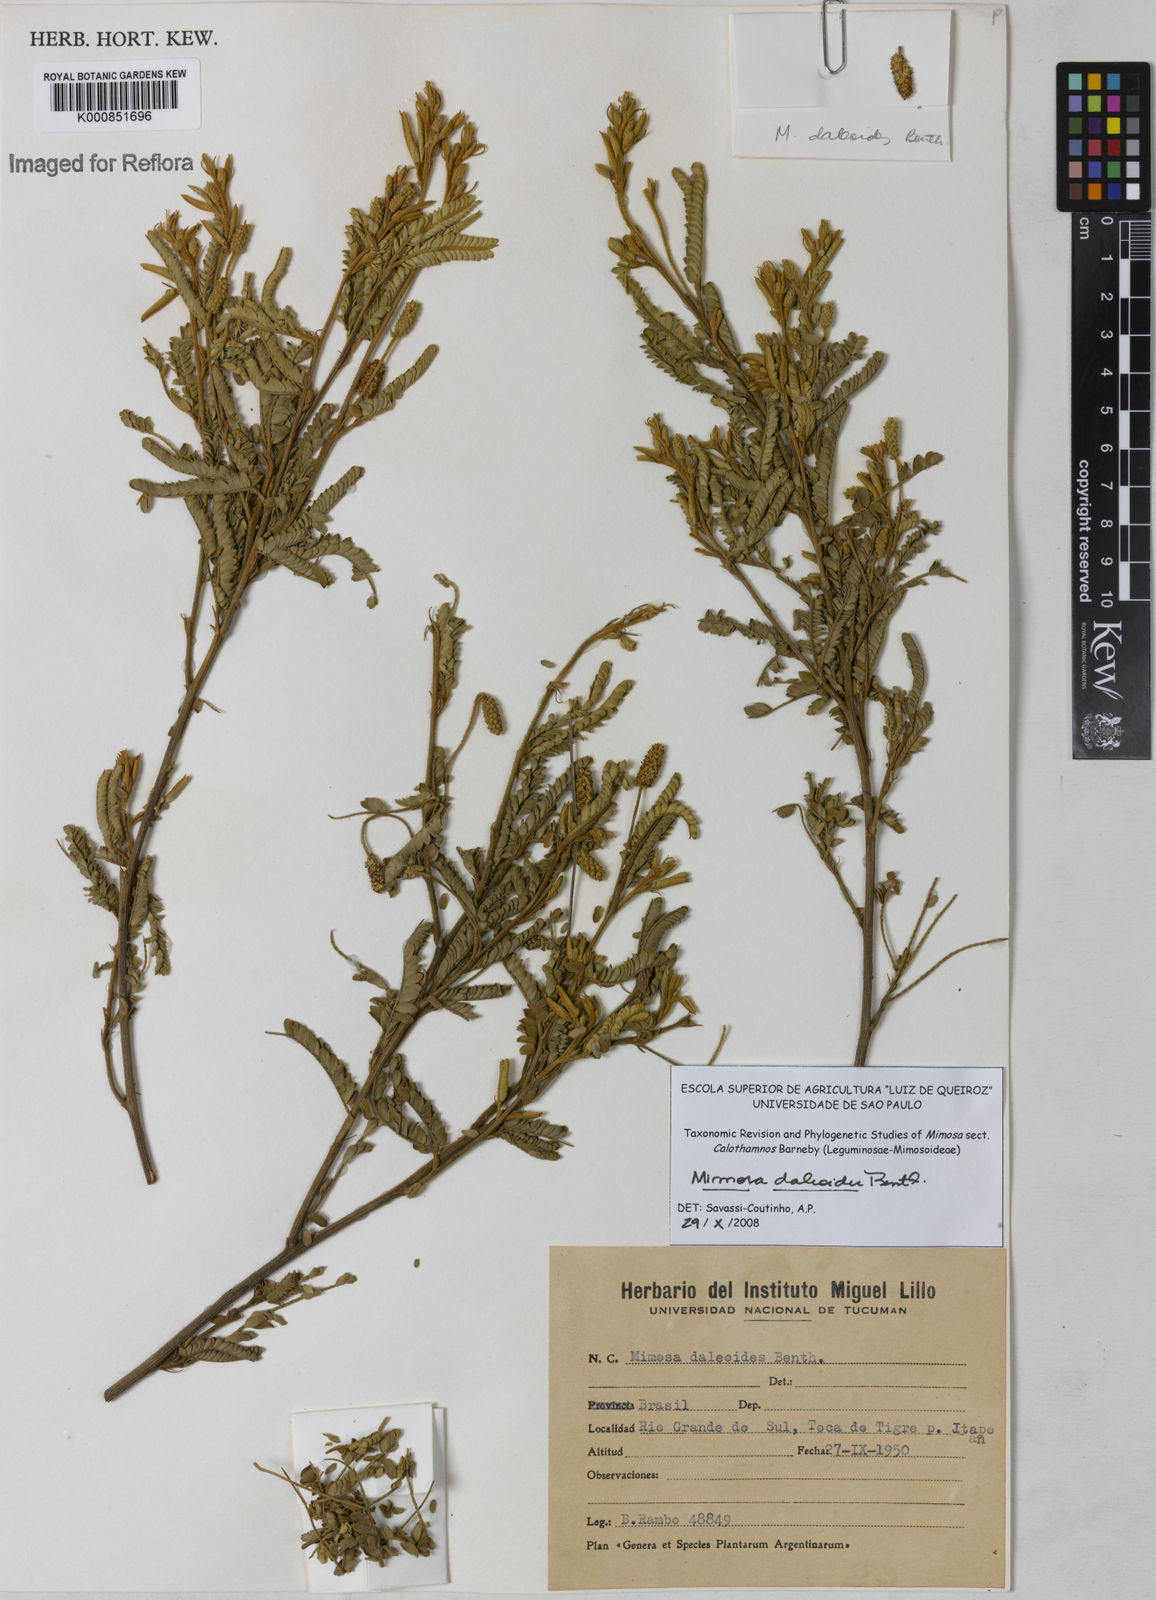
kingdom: Plantae
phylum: Tracheophyta
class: Magnoliopsida
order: Fabales
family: Fabaceae
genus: Mimosa
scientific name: Mimosa daleoides
